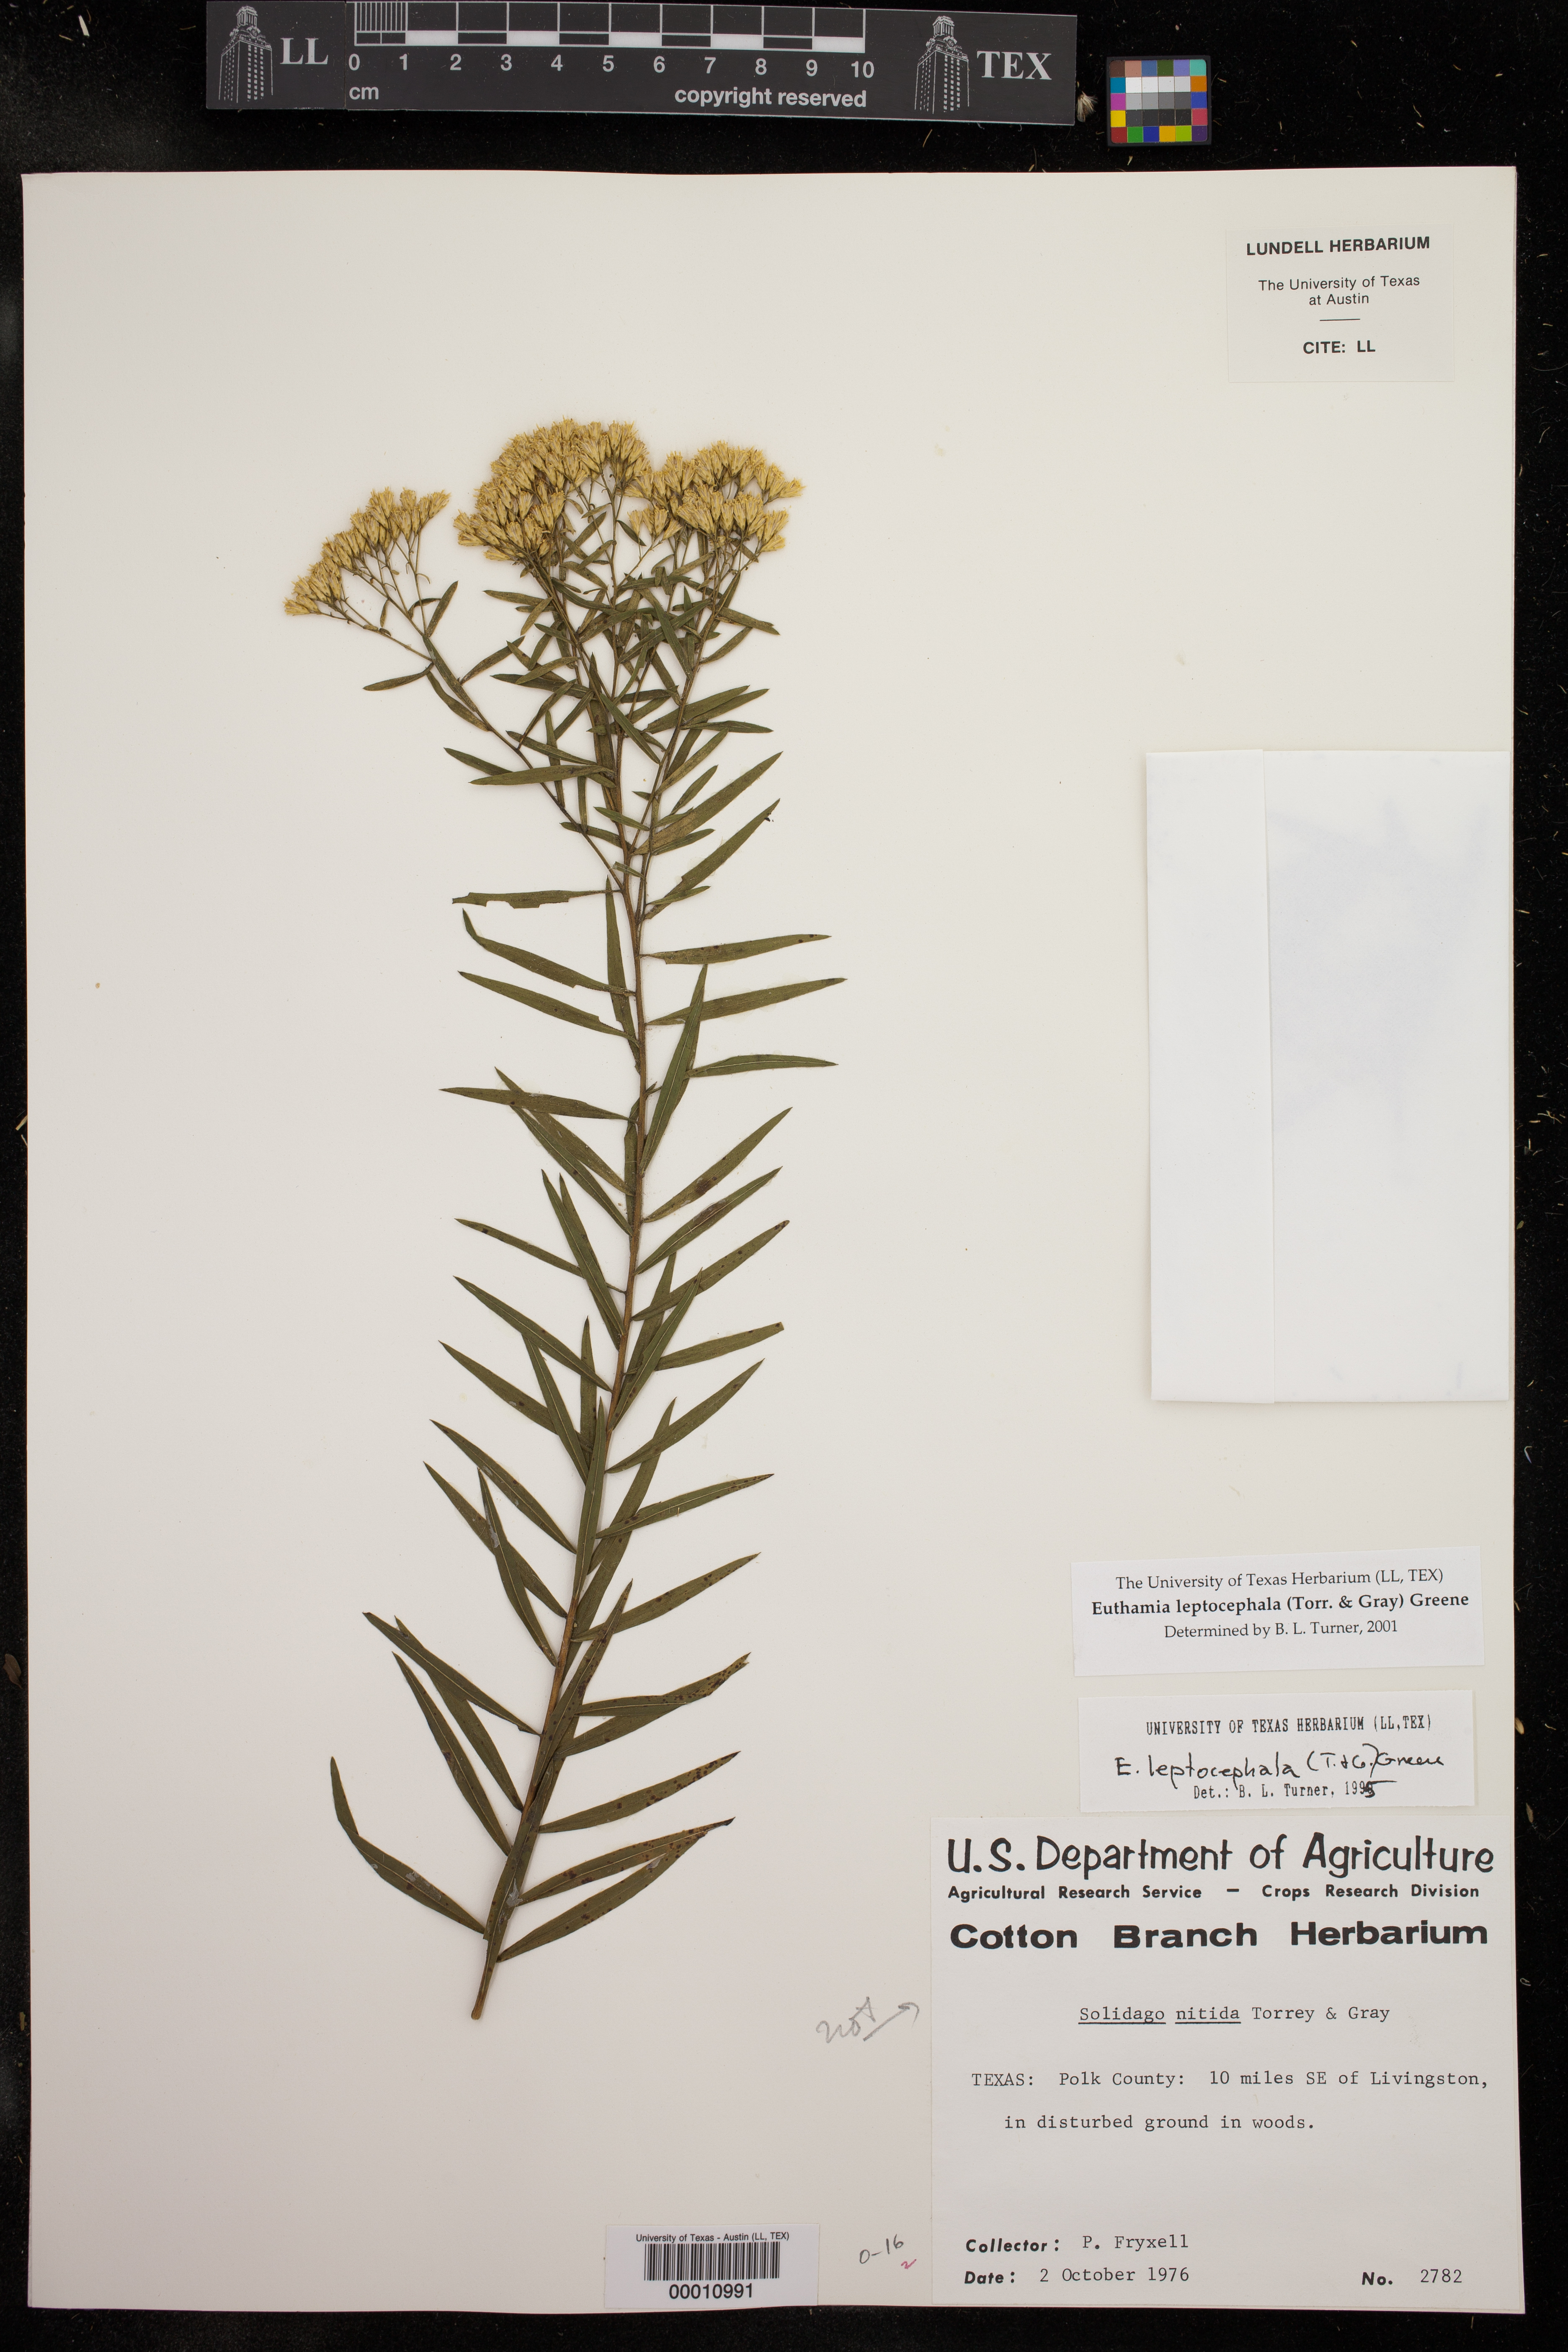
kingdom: Plantae
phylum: Tracheophyta
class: Magnoliopsida
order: Asterales
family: Asteraceae
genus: Euthamia
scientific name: Euthamia leptocephala
